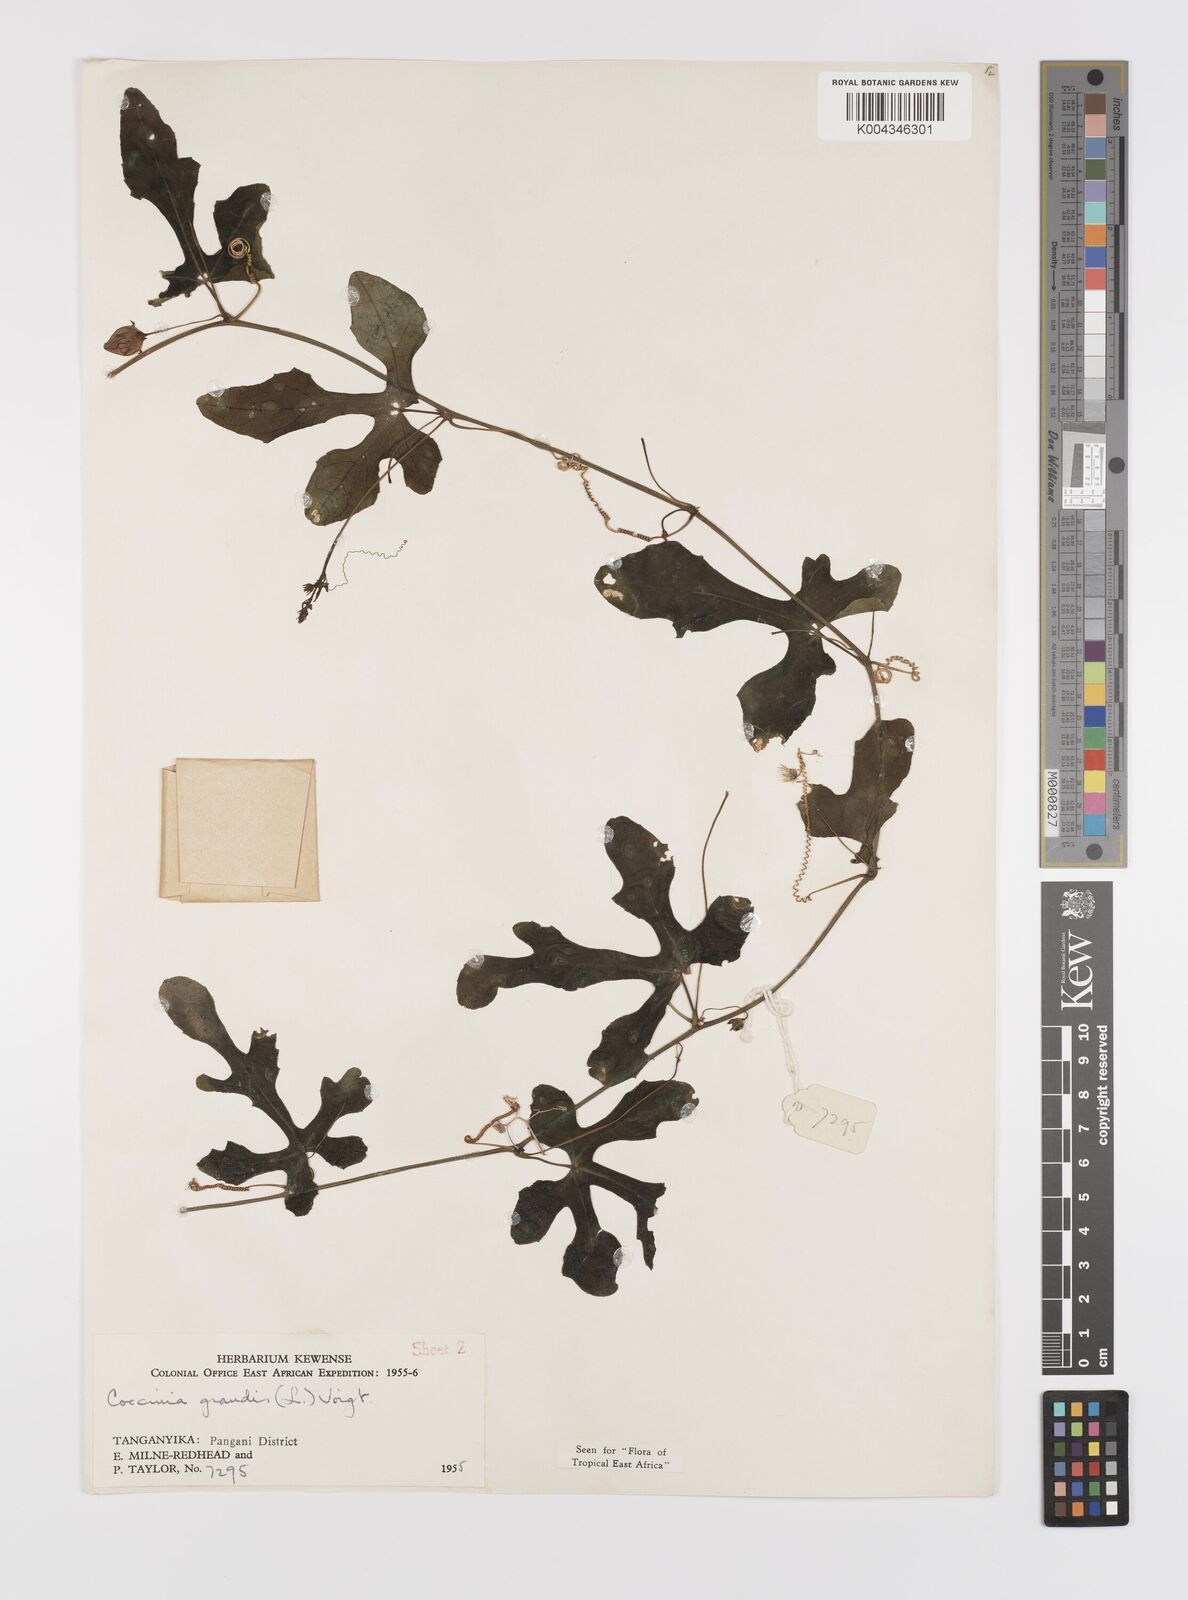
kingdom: Plantae
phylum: Tracheophyta
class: Magnoliopsida
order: Cucurbitales
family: Cucurbitaceae
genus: Coccinia
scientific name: Coccinia grandis
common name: Ivy gourd
